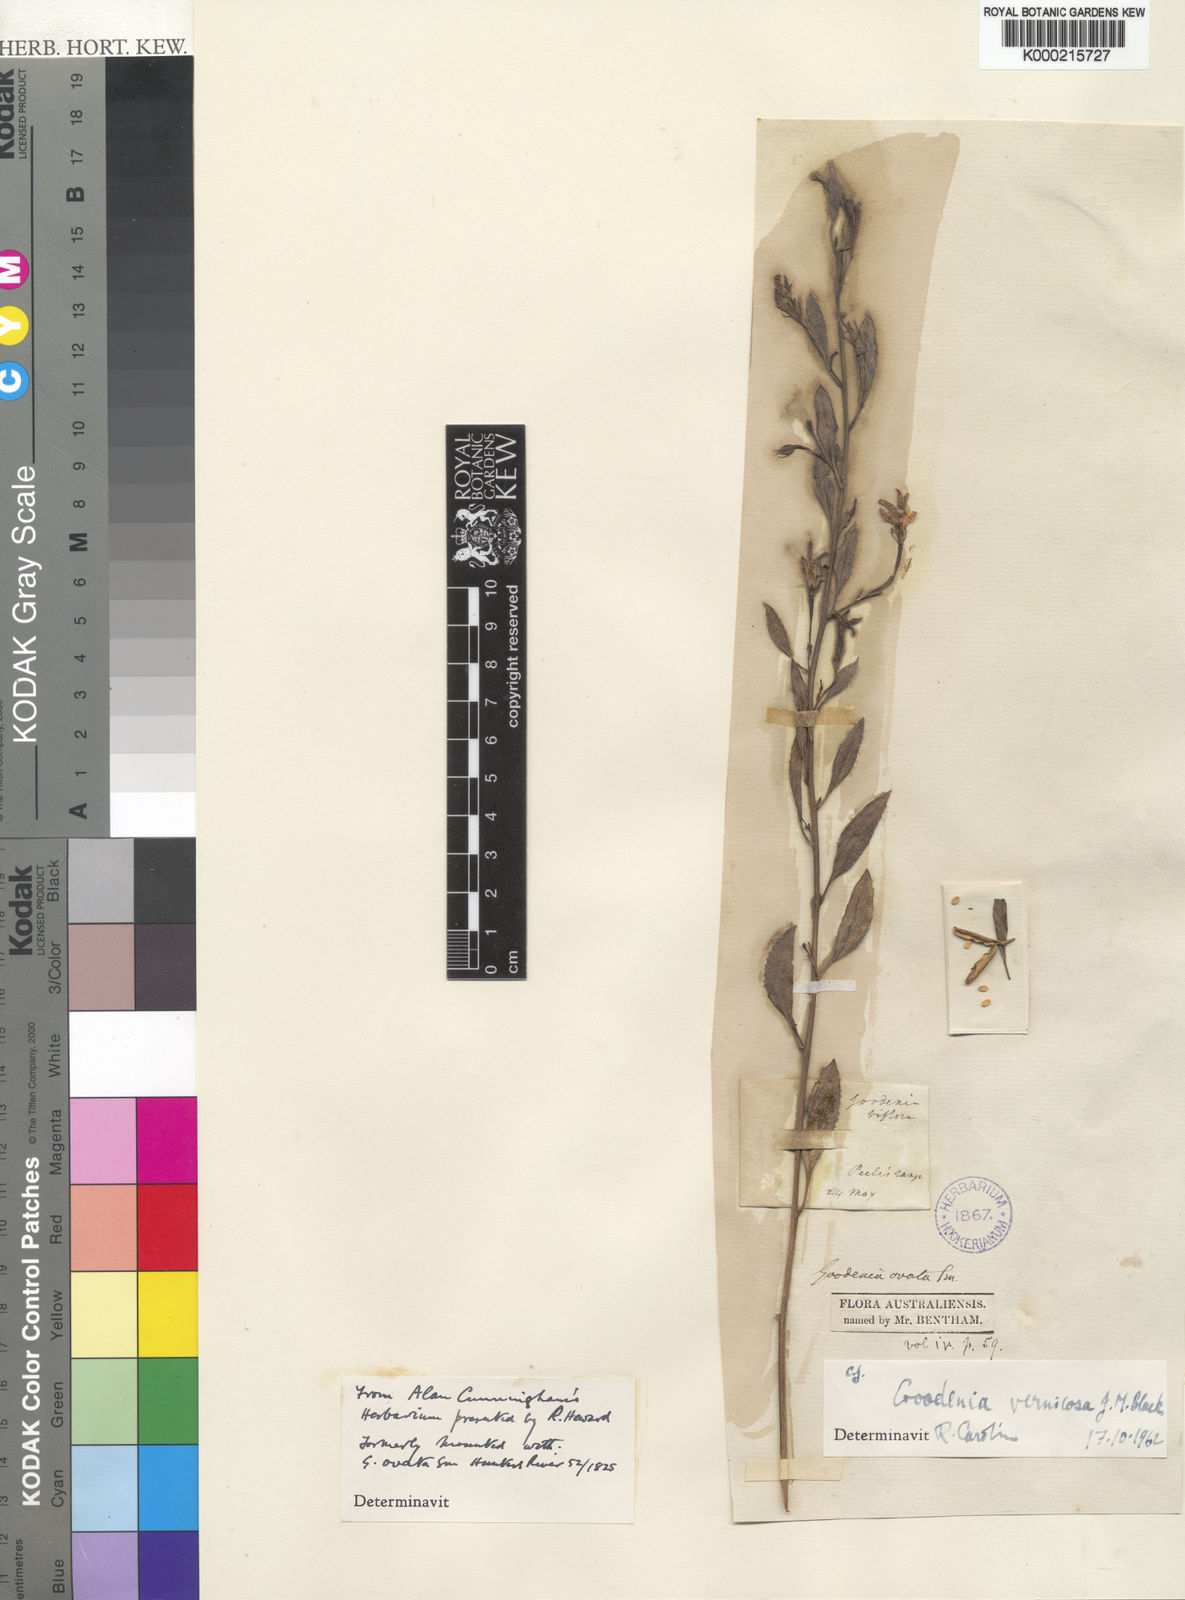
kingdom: Plantae
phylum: Tracheophyta
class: Magnoliopsida
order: Asterales
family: Goodeniaceae
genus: Goodenia
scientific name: Goodenia vernicosa
